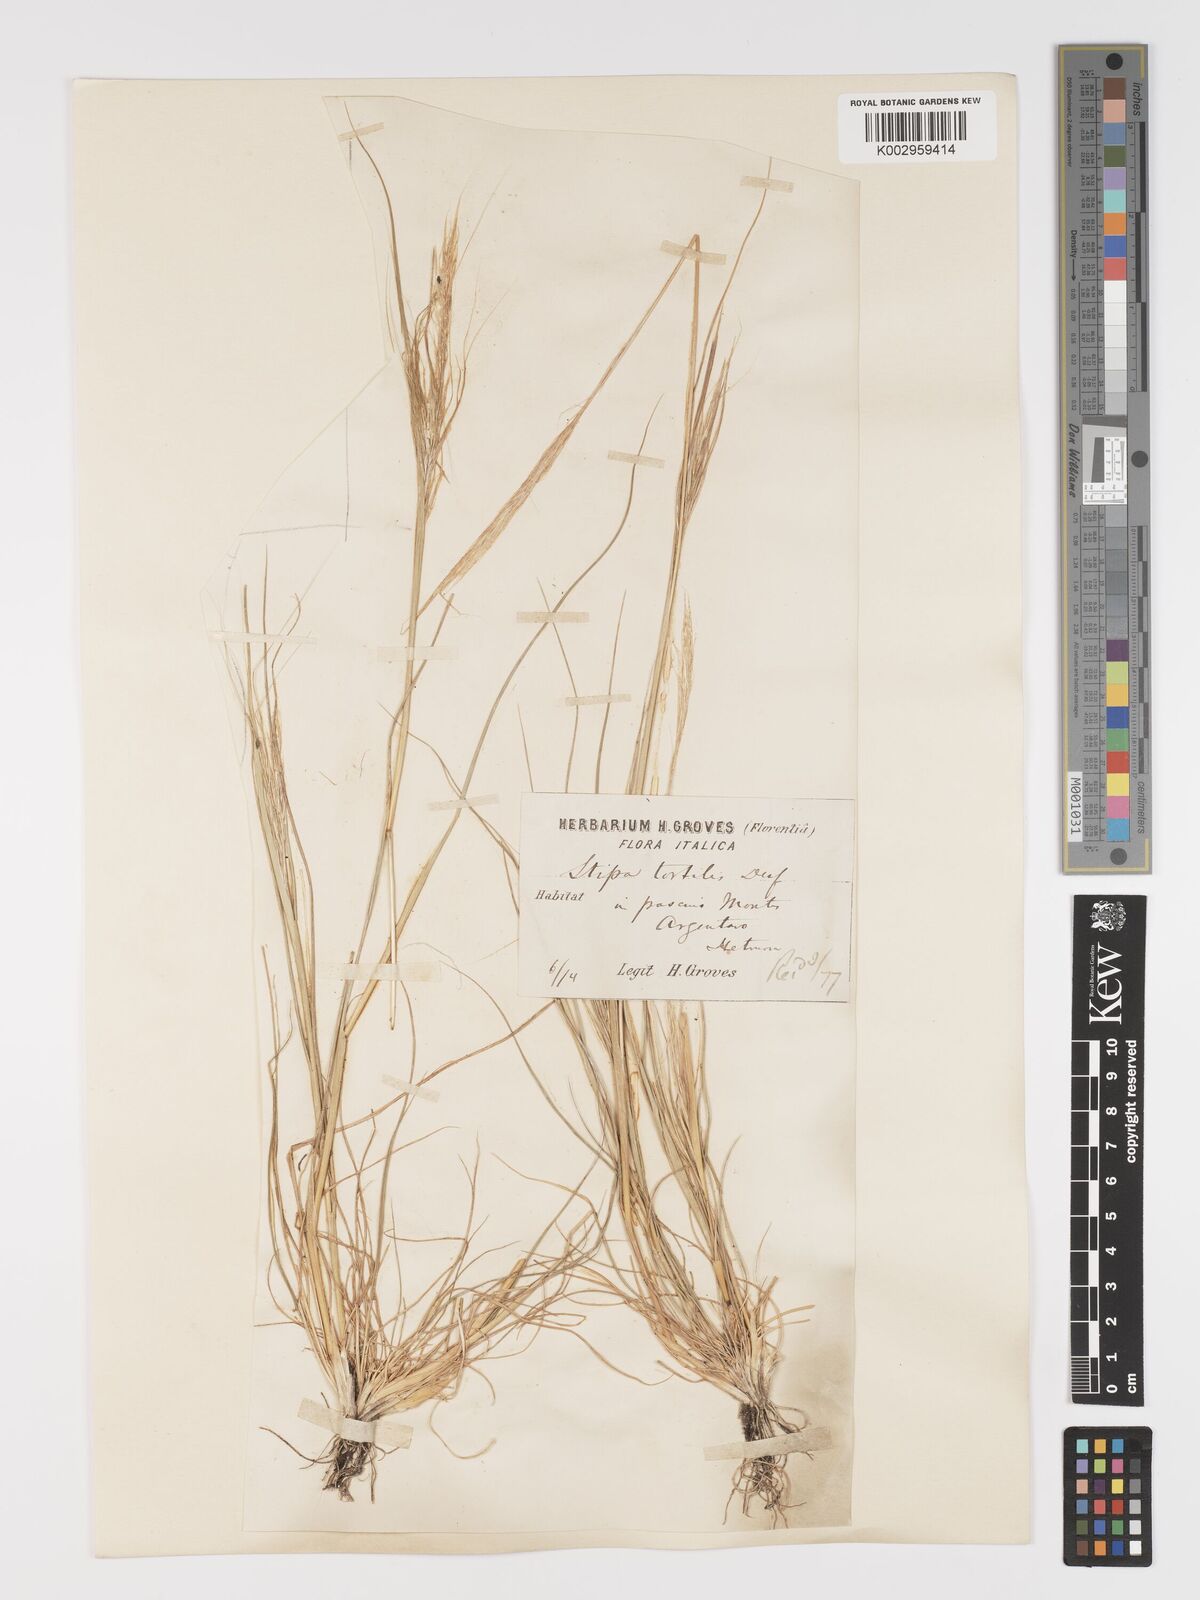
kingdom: Plantae
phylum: Tracheophyta
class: Liliopsida
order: Poales
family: Poaceae
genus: Stipa
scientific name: Stipa
